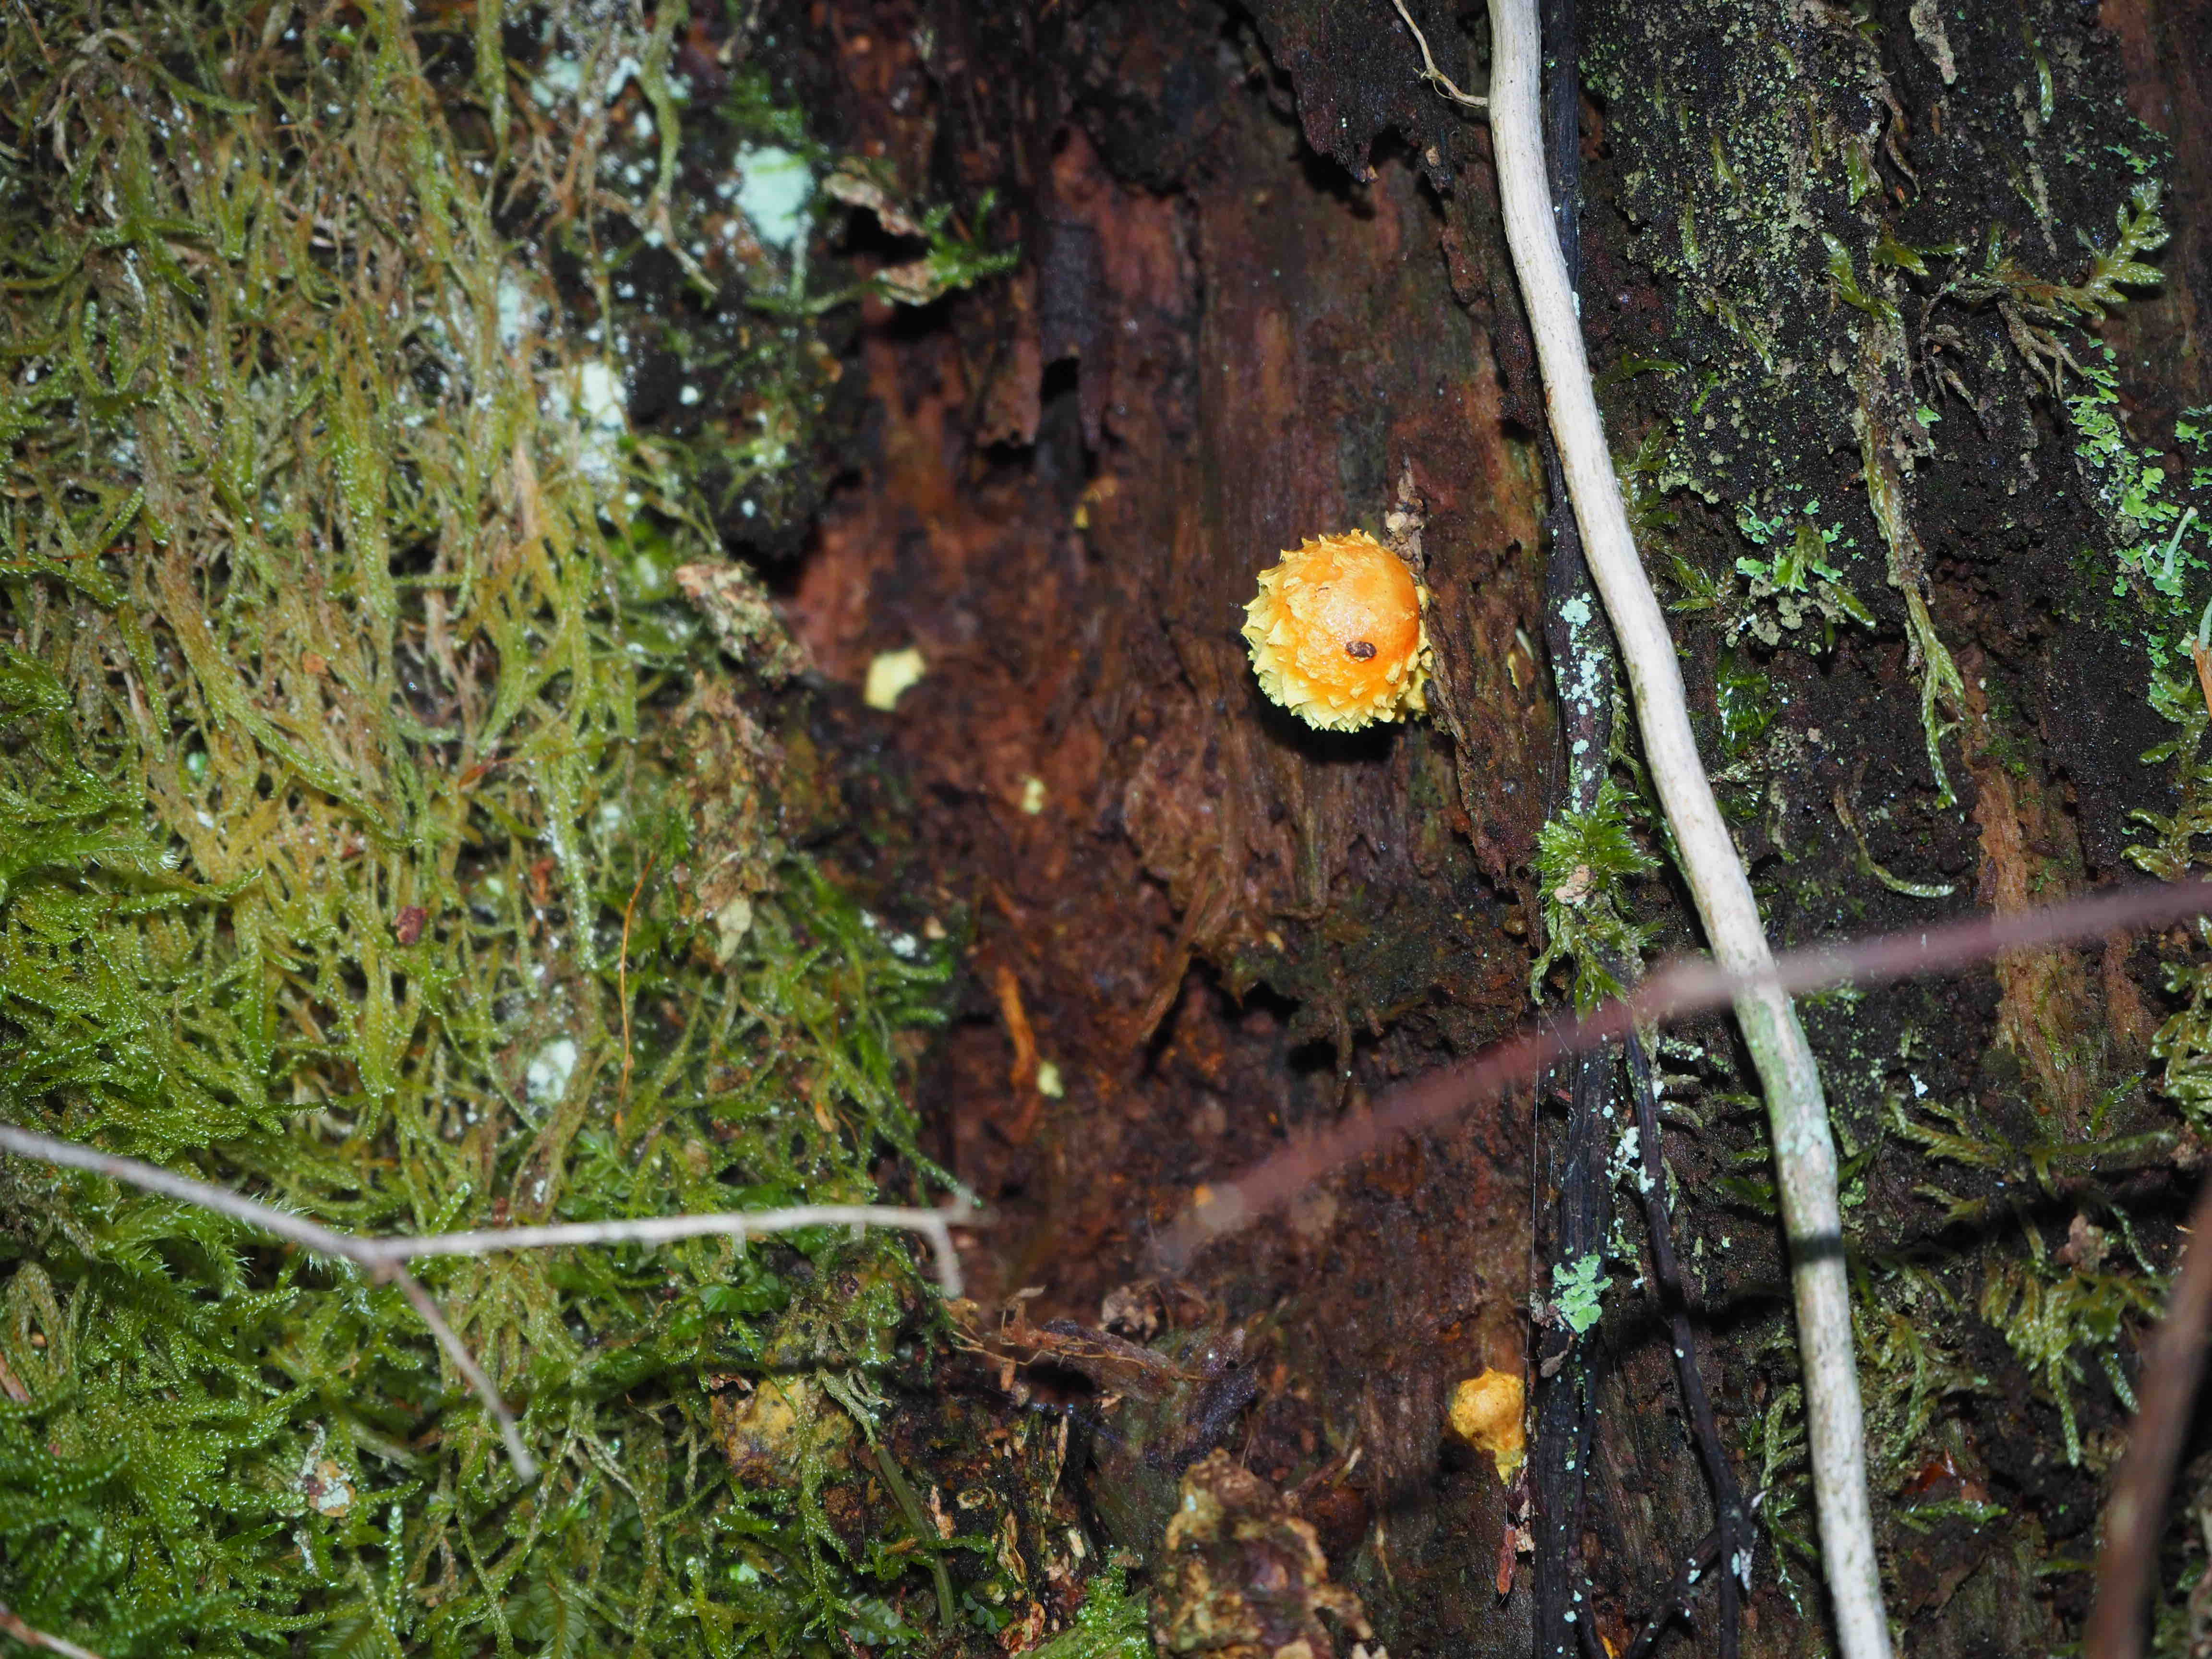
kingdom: Fungi
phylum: Basidiomycota
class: Agaricomycetes
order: Agaricales
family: Strophariaceae
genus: Pholiota
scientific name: Pholiota flammans
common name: flamme-skælhat
